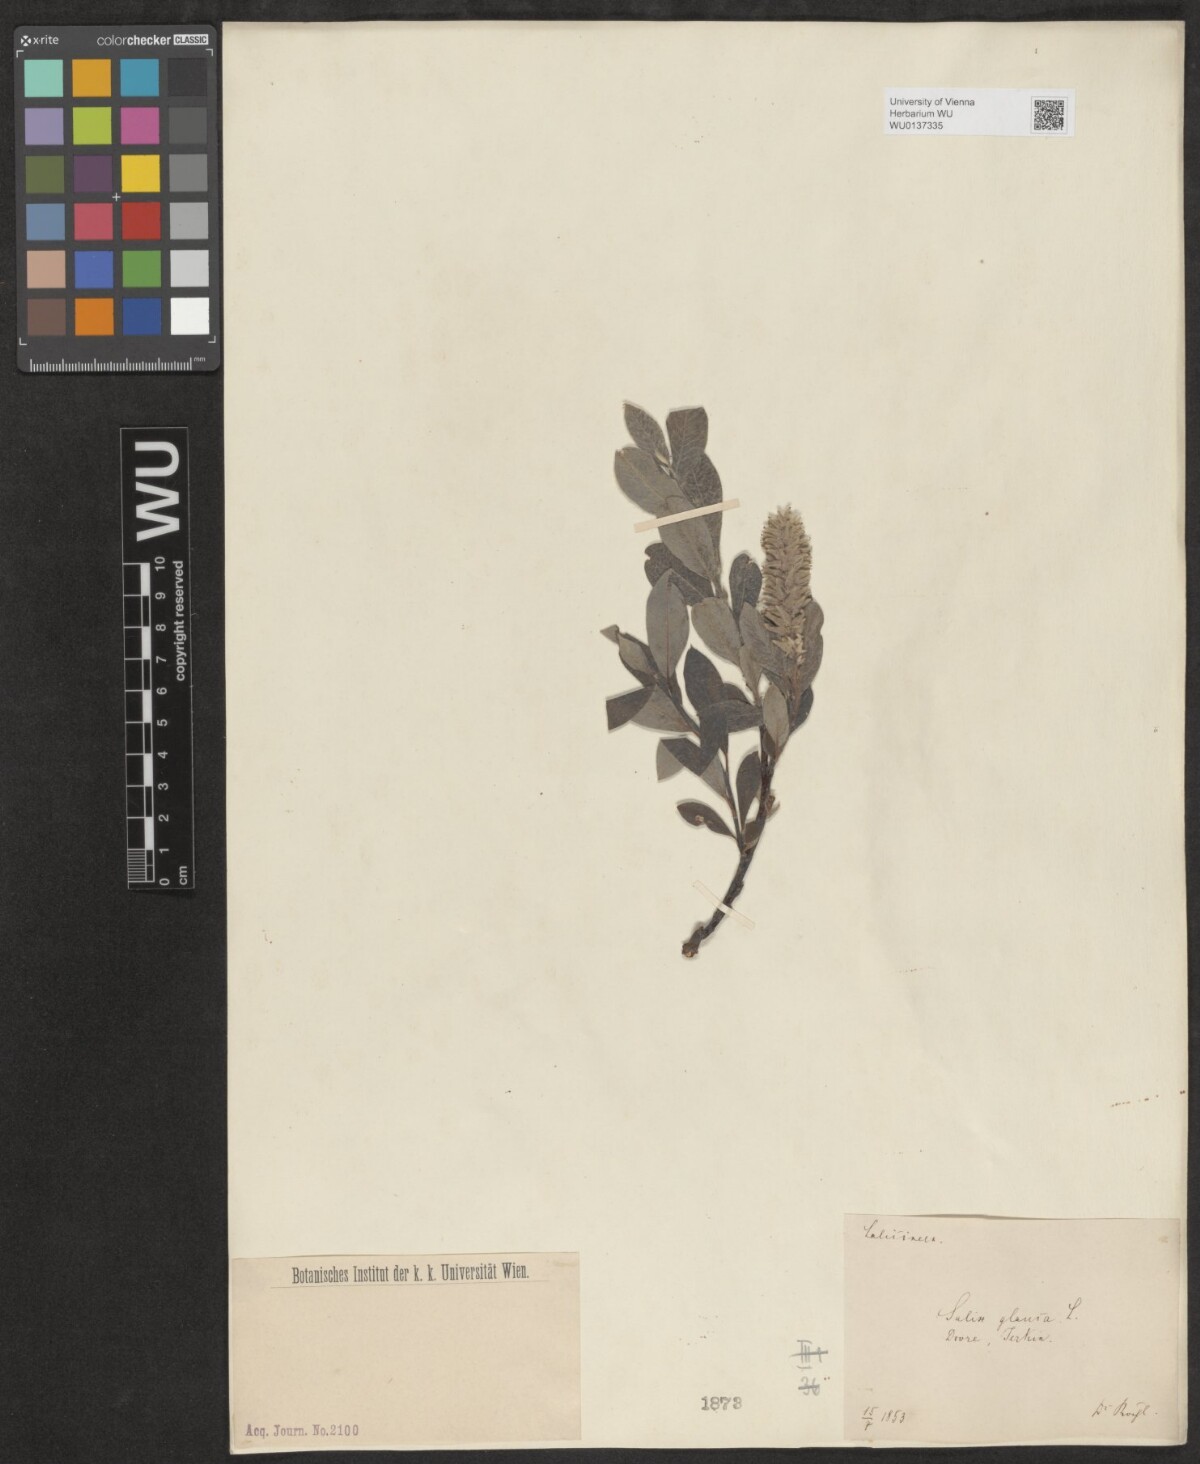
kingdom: Plantae
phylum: Tracheophyta
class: Magnoliopsida
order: Malpighiales
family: Salicaceae
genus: Salix
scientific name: Salix glauca
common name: Glaucous willow
